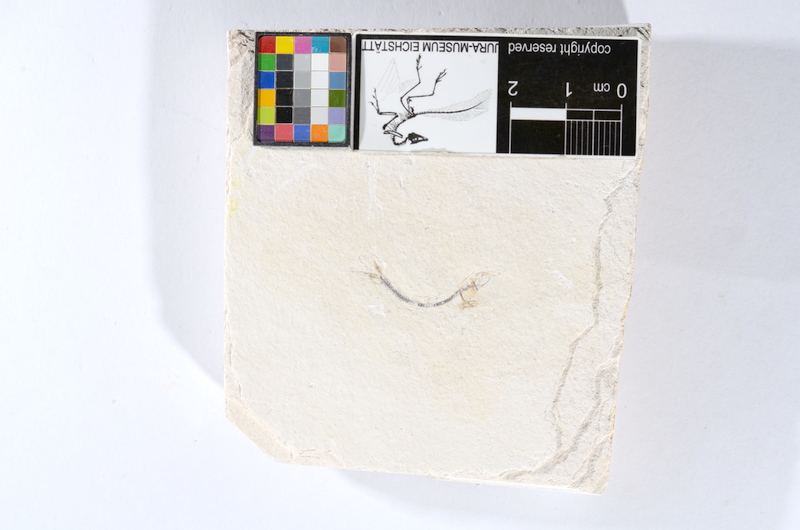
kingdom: Animalia
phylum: Chordata
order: Salmoniformes
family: Orthogonikleithridae
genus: Orthogonikleithrus
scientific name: Orthogonikleithrus hoelli
